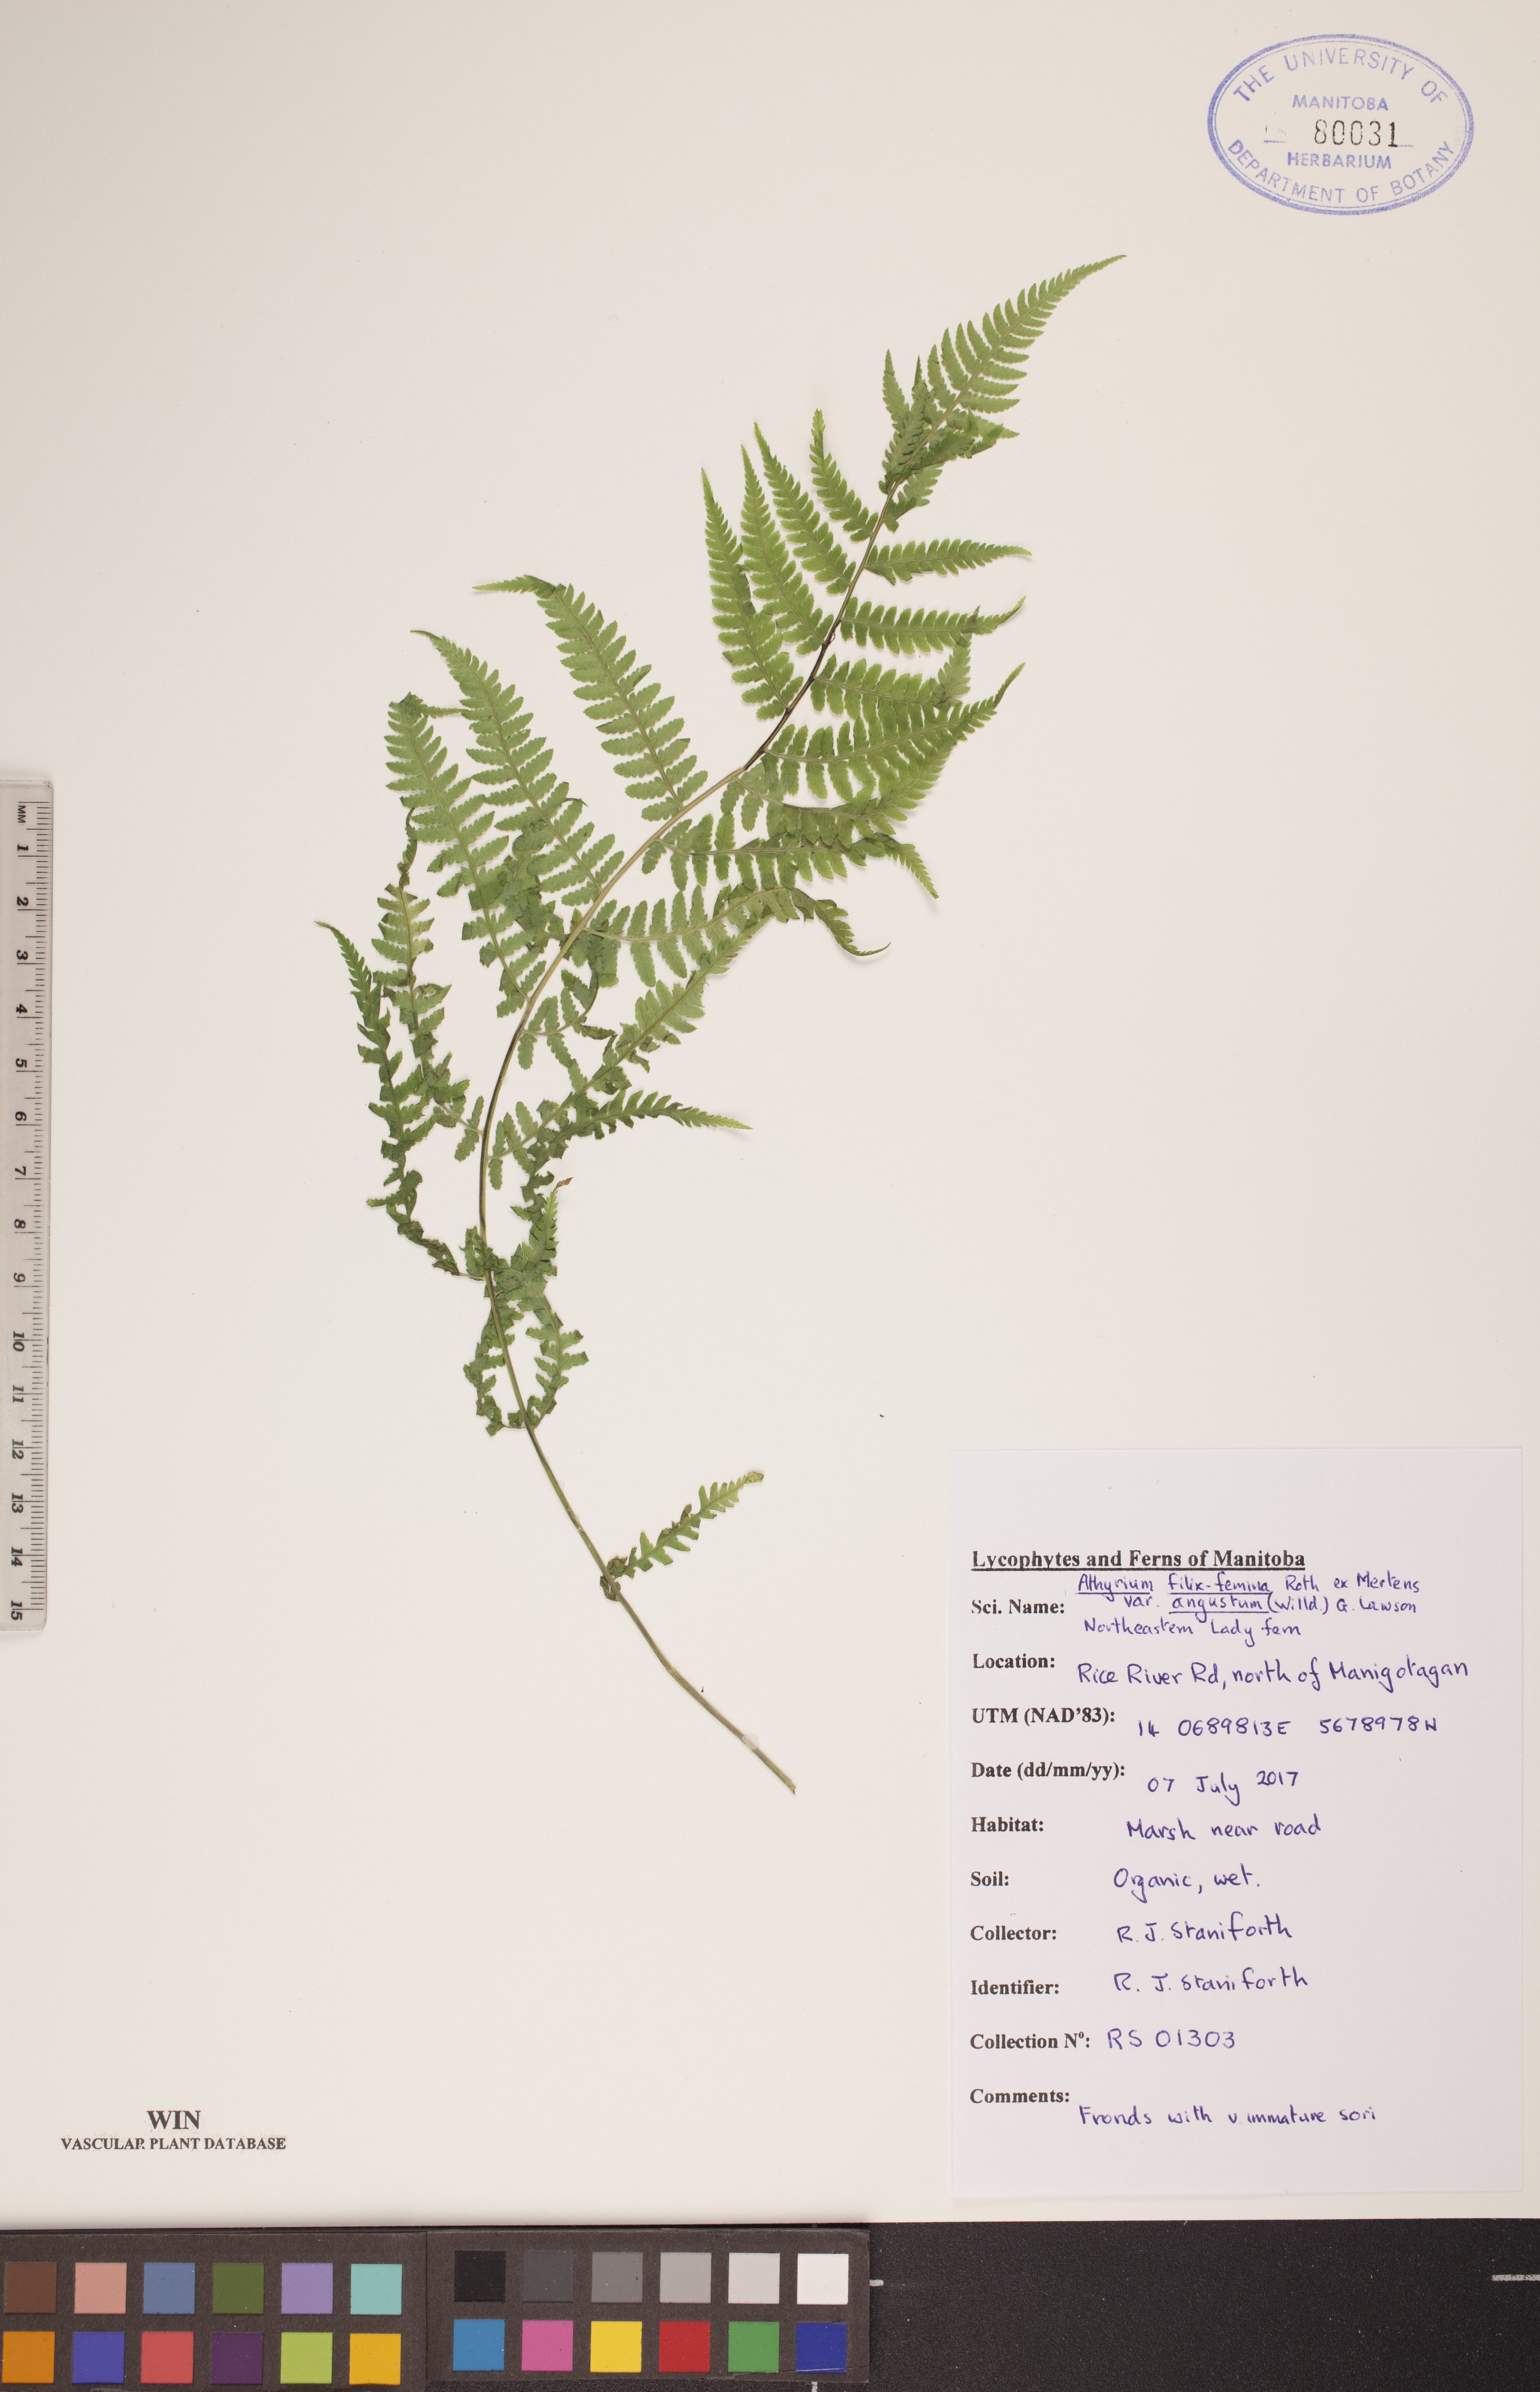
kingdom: Plantae
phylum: Tracheophyta
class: Polypodiopsida
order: Polypodiales
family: Athyriaceae
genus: Athyrium
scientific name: Athyrium angustum
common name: Northern lady fern
